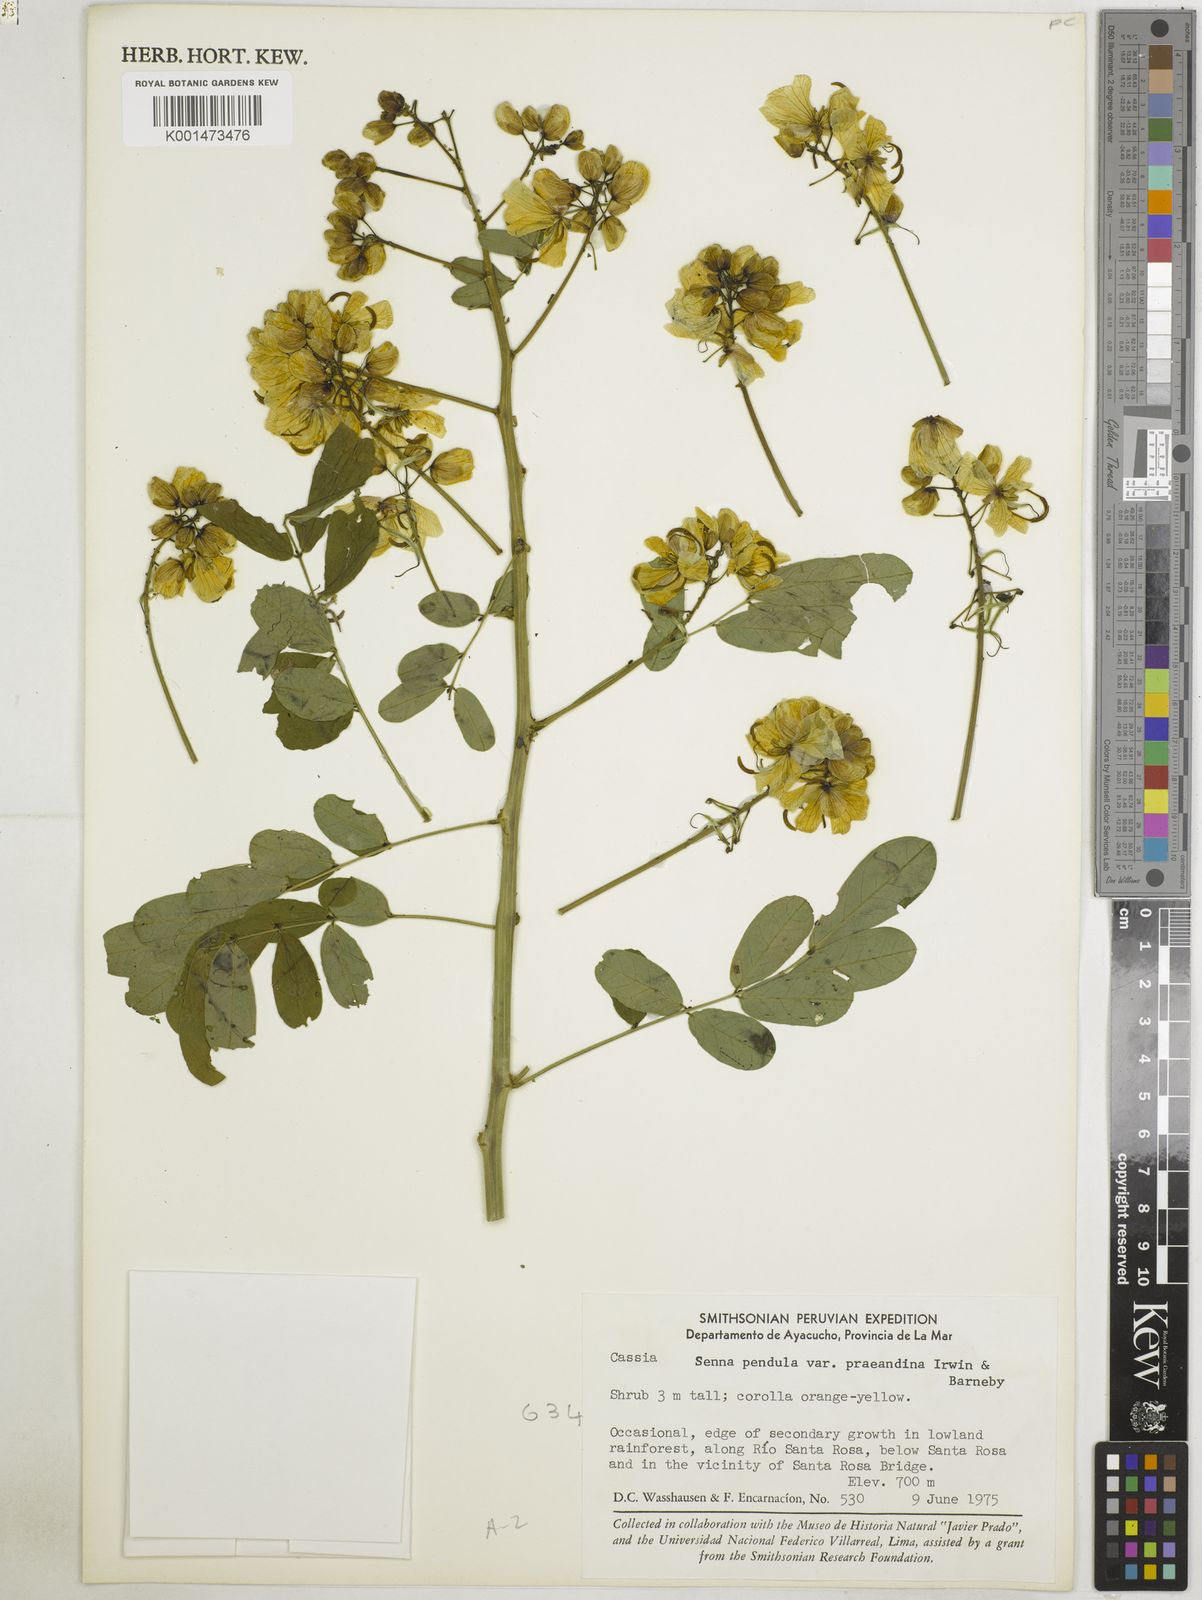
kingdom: Plantae
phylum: Tracheophyta
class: Magnoliopsida
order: Fabales
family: Fabaceae
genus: Senna
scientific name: Senna pendula
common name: Easter cassia
